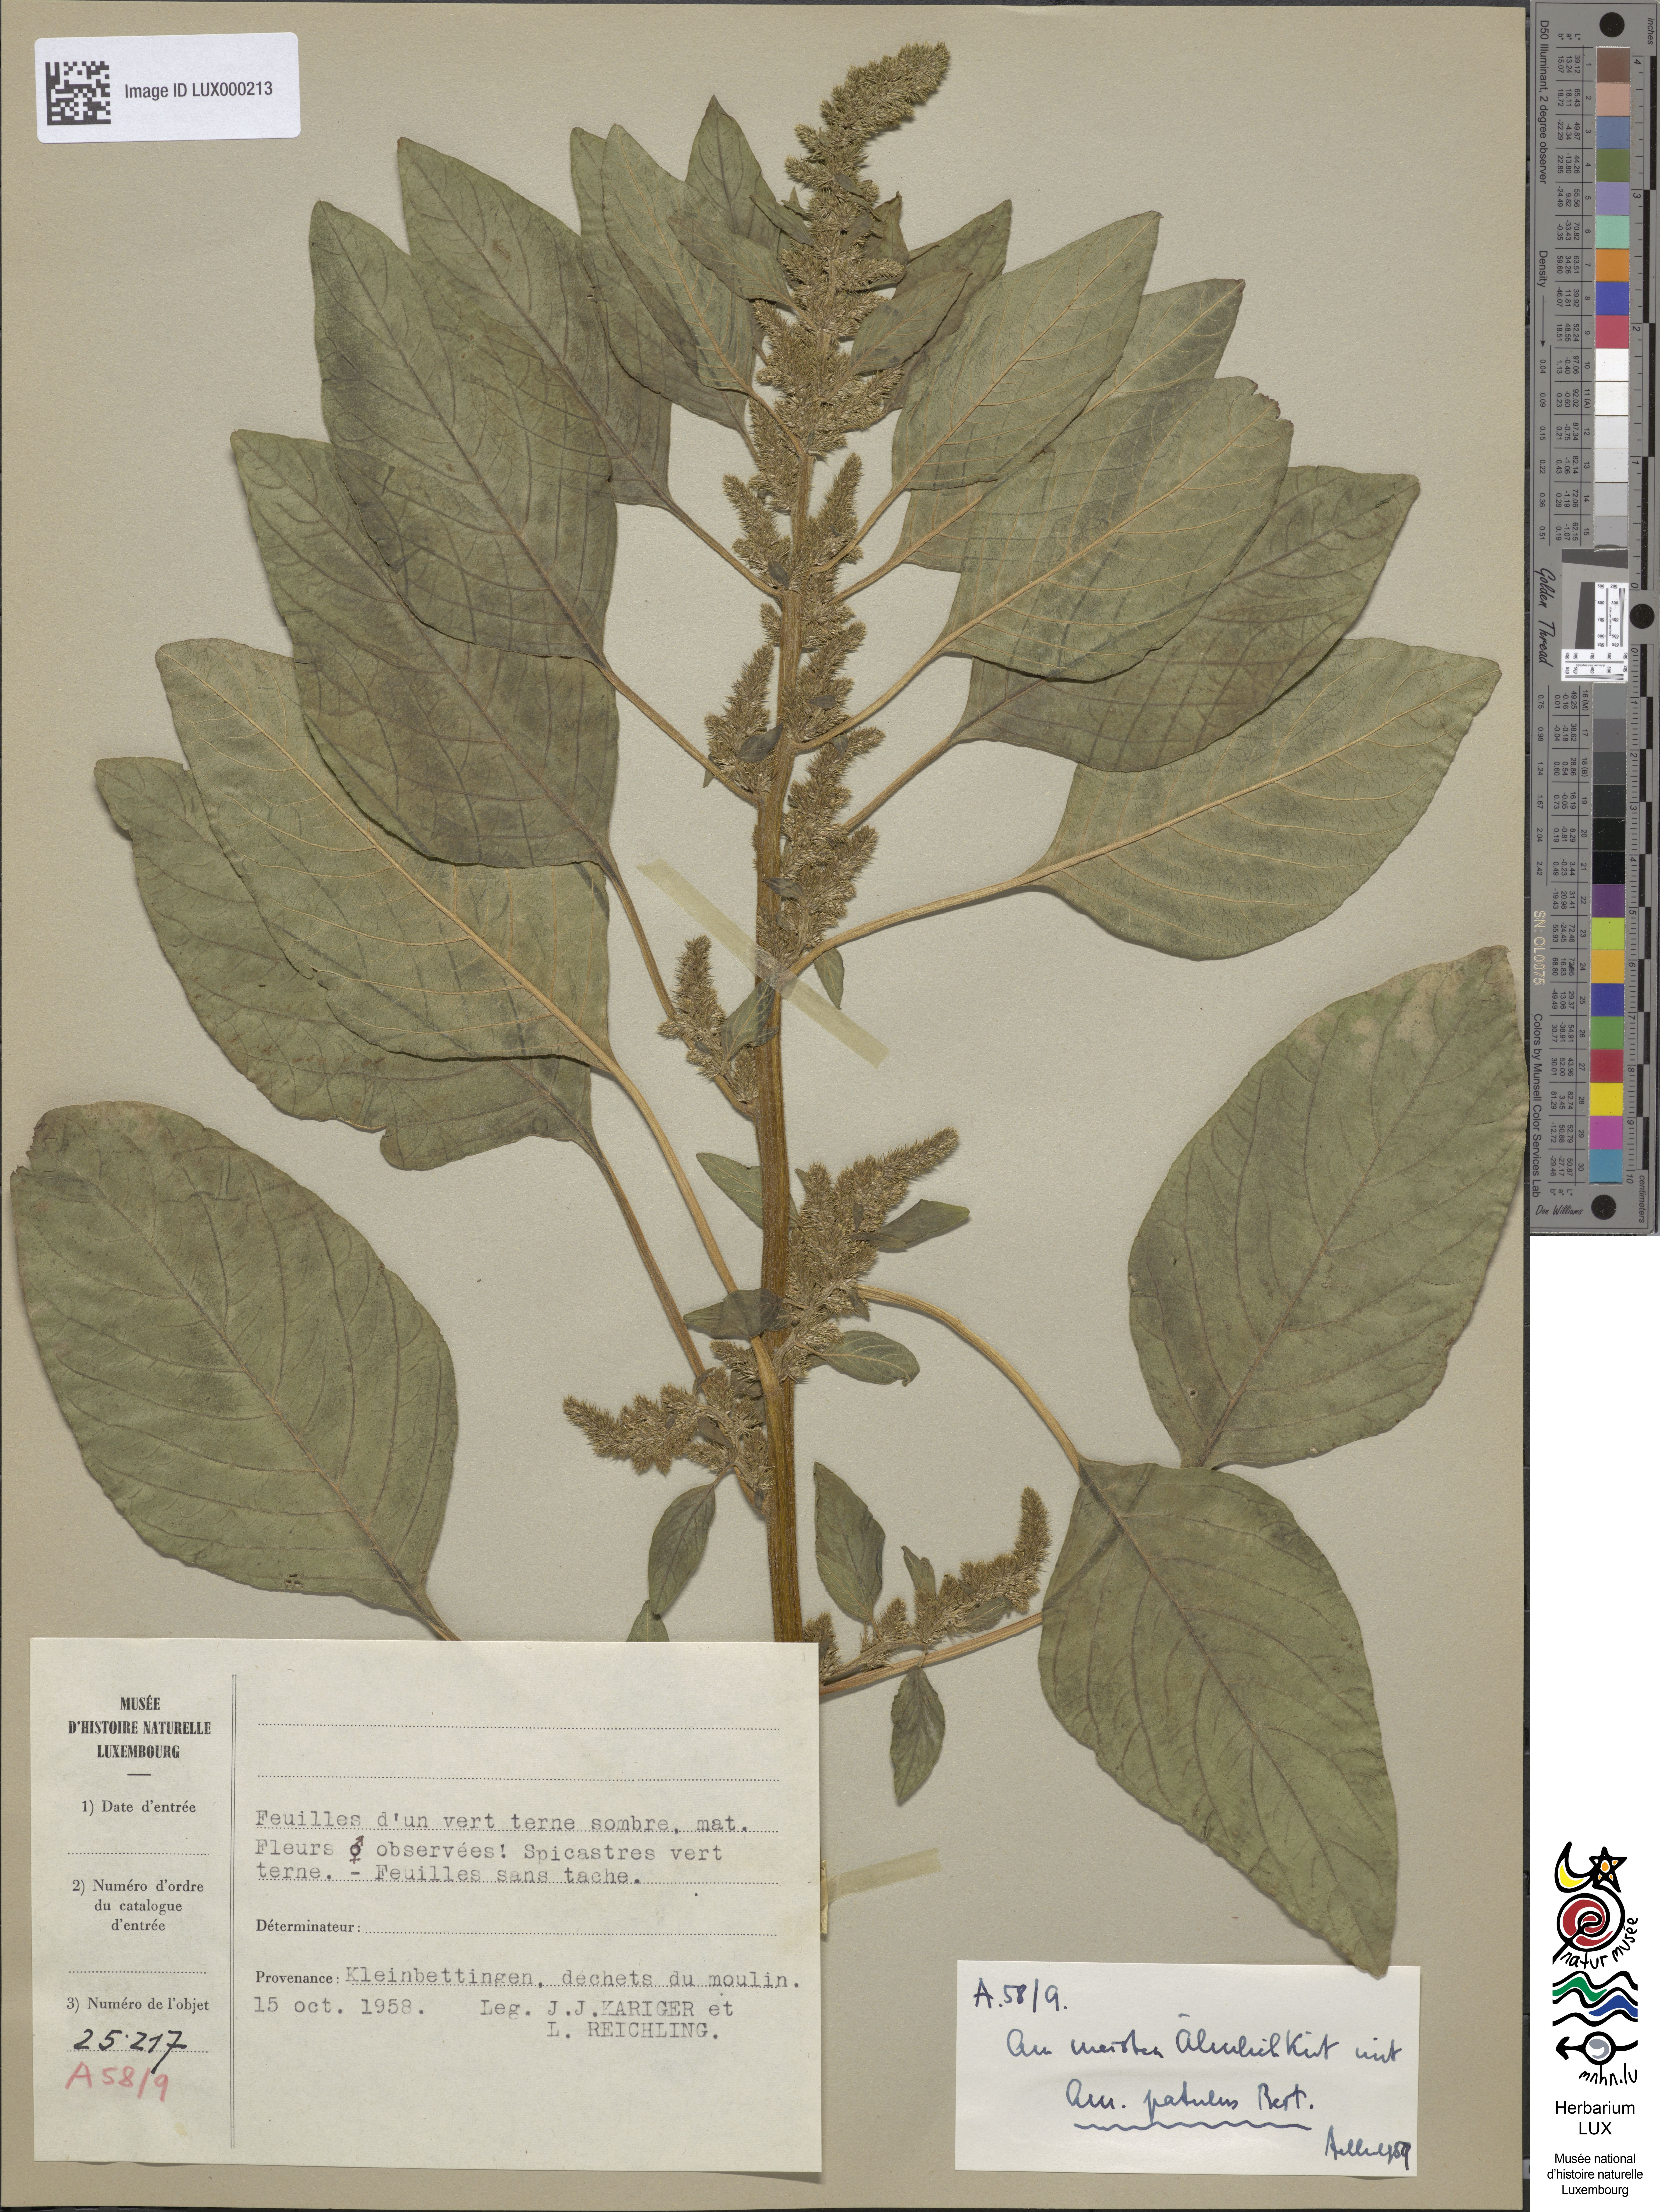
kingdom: Plantae
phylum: Tracheophyta
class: Magnoliopsida
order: Caryophyllales
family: Amaranthaceae
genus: Amaranthus
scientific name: Amaranthus hybridus
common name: Green amaranth
